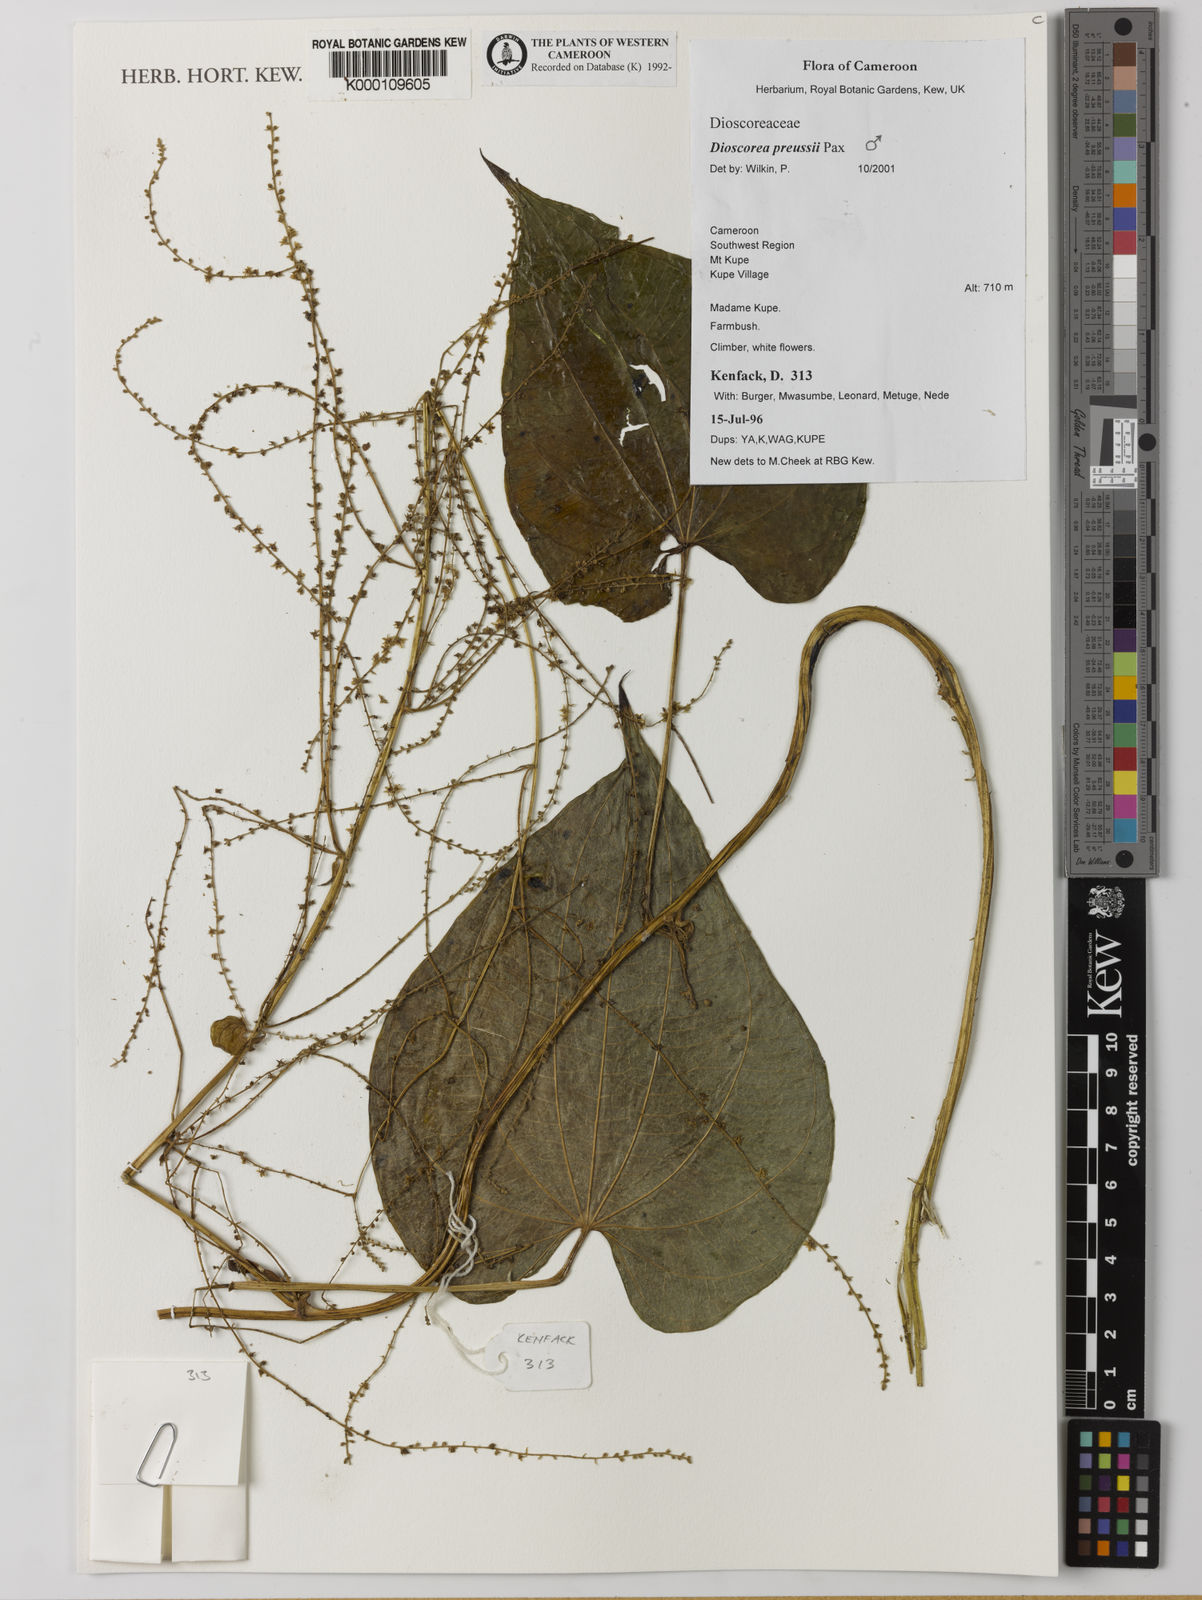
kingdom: Plantae
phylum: Tracheophyta
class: Liliopsida
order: Dioscoreales
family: Dioscoreaceae
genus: Dioscorea
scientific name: Dioscorea preussii
